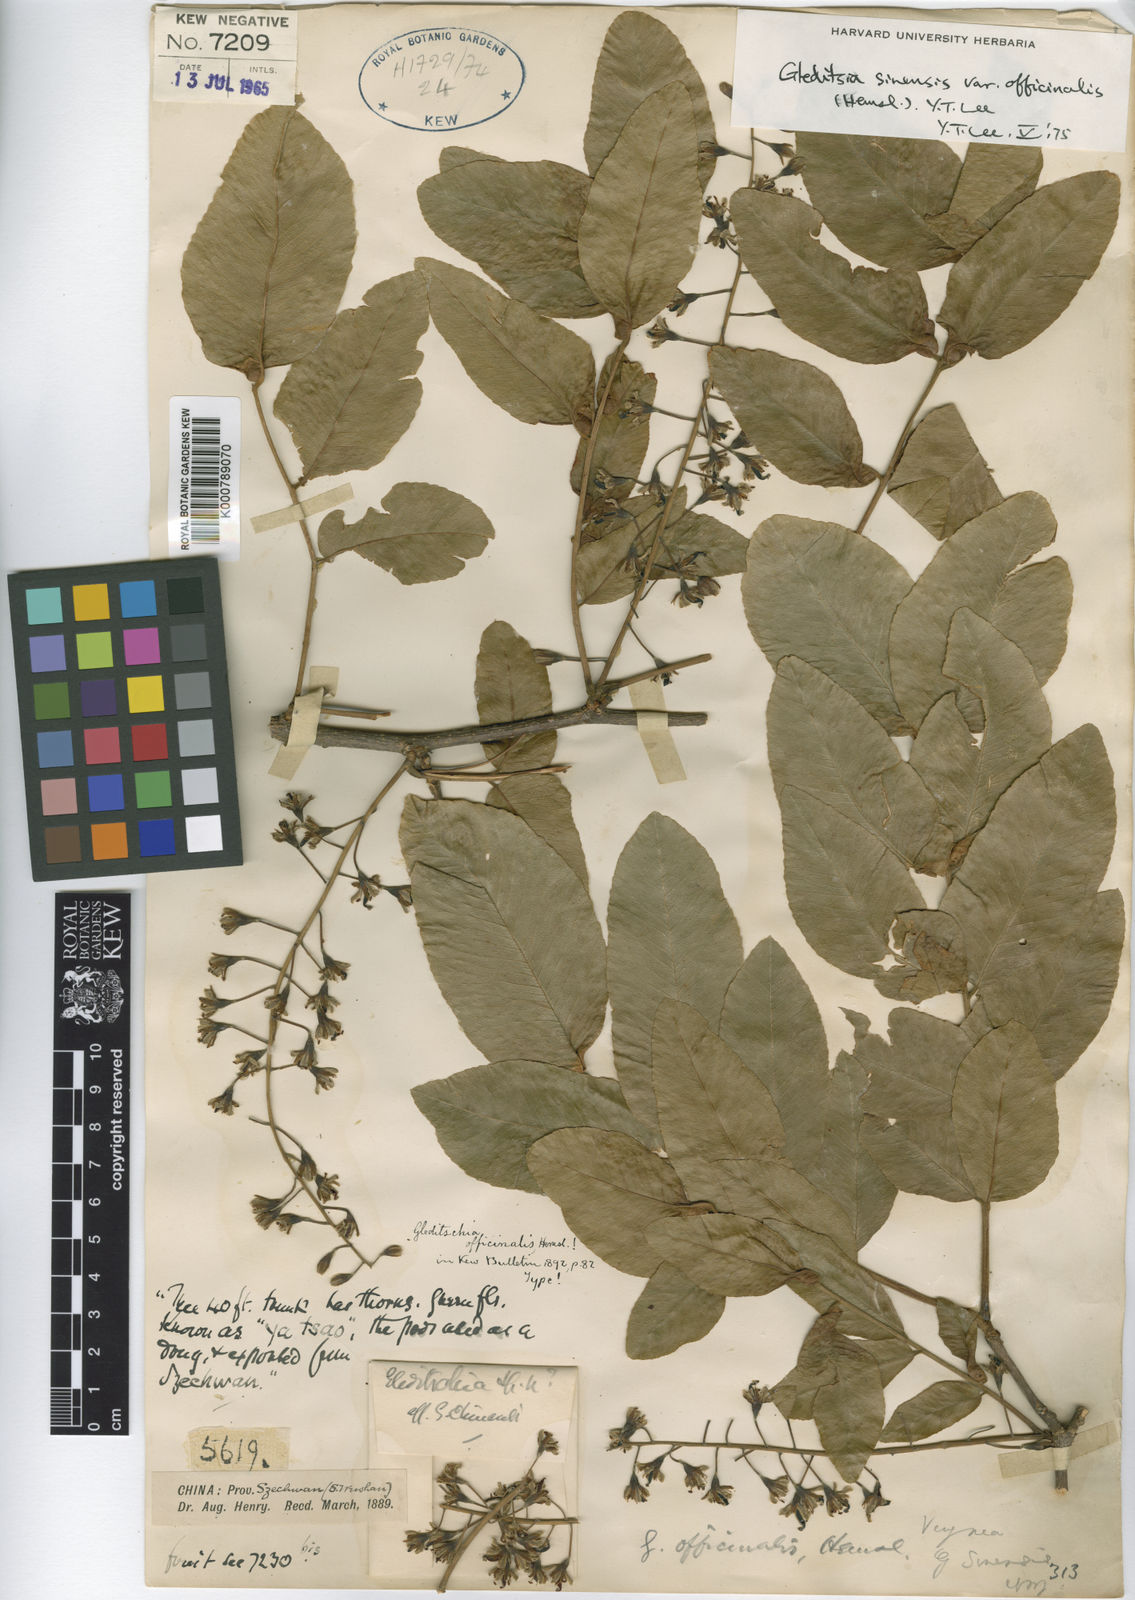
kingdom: Plantae
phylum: Tracheophyta
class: Magnoliopsida
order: Fabales
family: Fabaceae
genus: Gleditsia
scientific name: Gleditsia sinensis
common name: Chinese honey-locust
